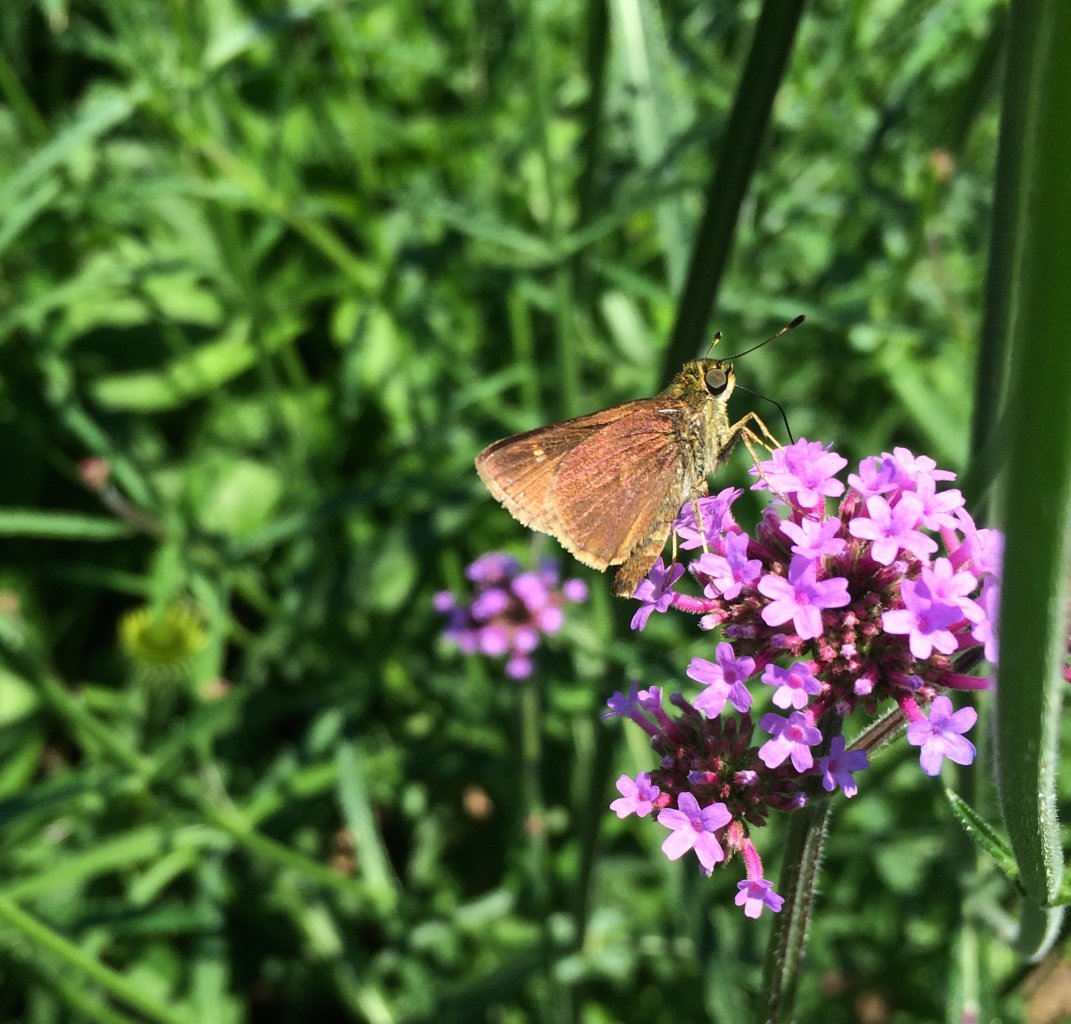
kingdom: Animalia
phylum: Arthropoda
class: Insecta
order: Lepidoptera
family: Hesperiidae
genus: Vernia
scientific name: Vernia verna
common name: Little Glassywing
